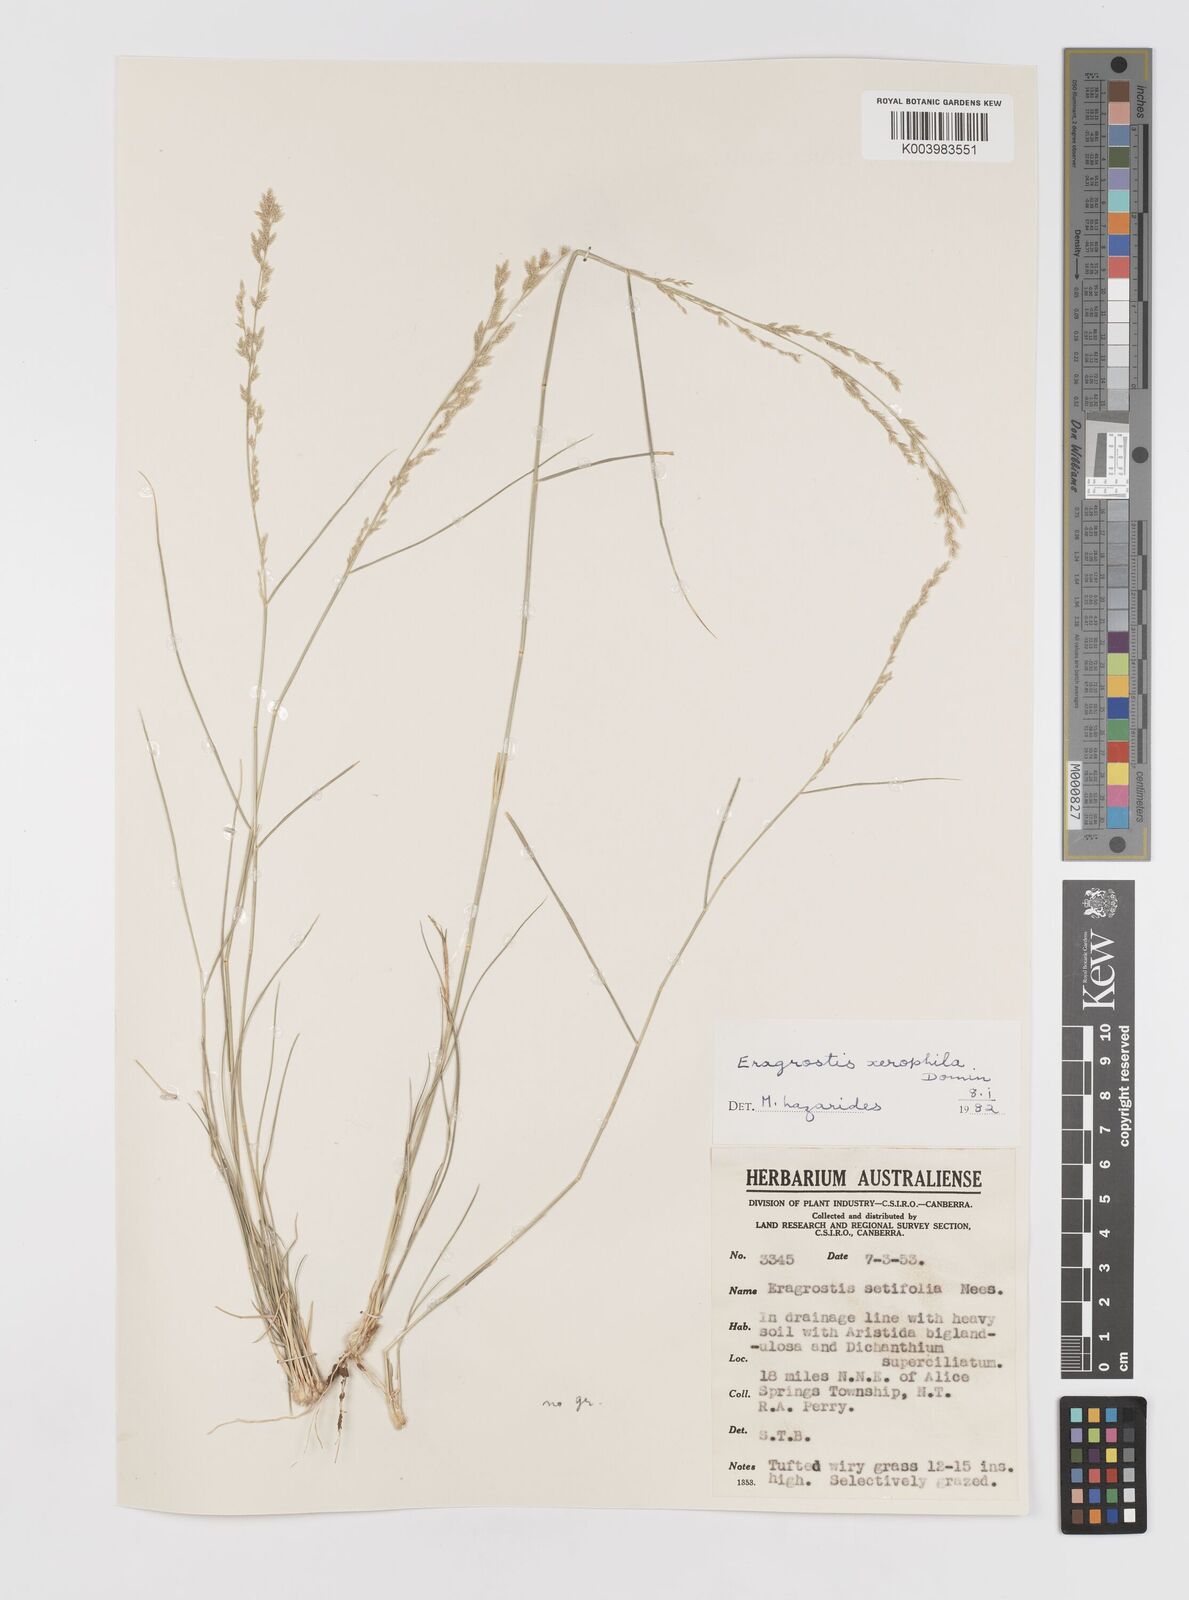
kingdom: Plantae
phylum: Tracheophyta
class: Liliopsida
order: Poales
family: Poaceae
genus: Eragrostis
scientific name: Eragrostis xerophila
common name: Wire wandarrie grass
